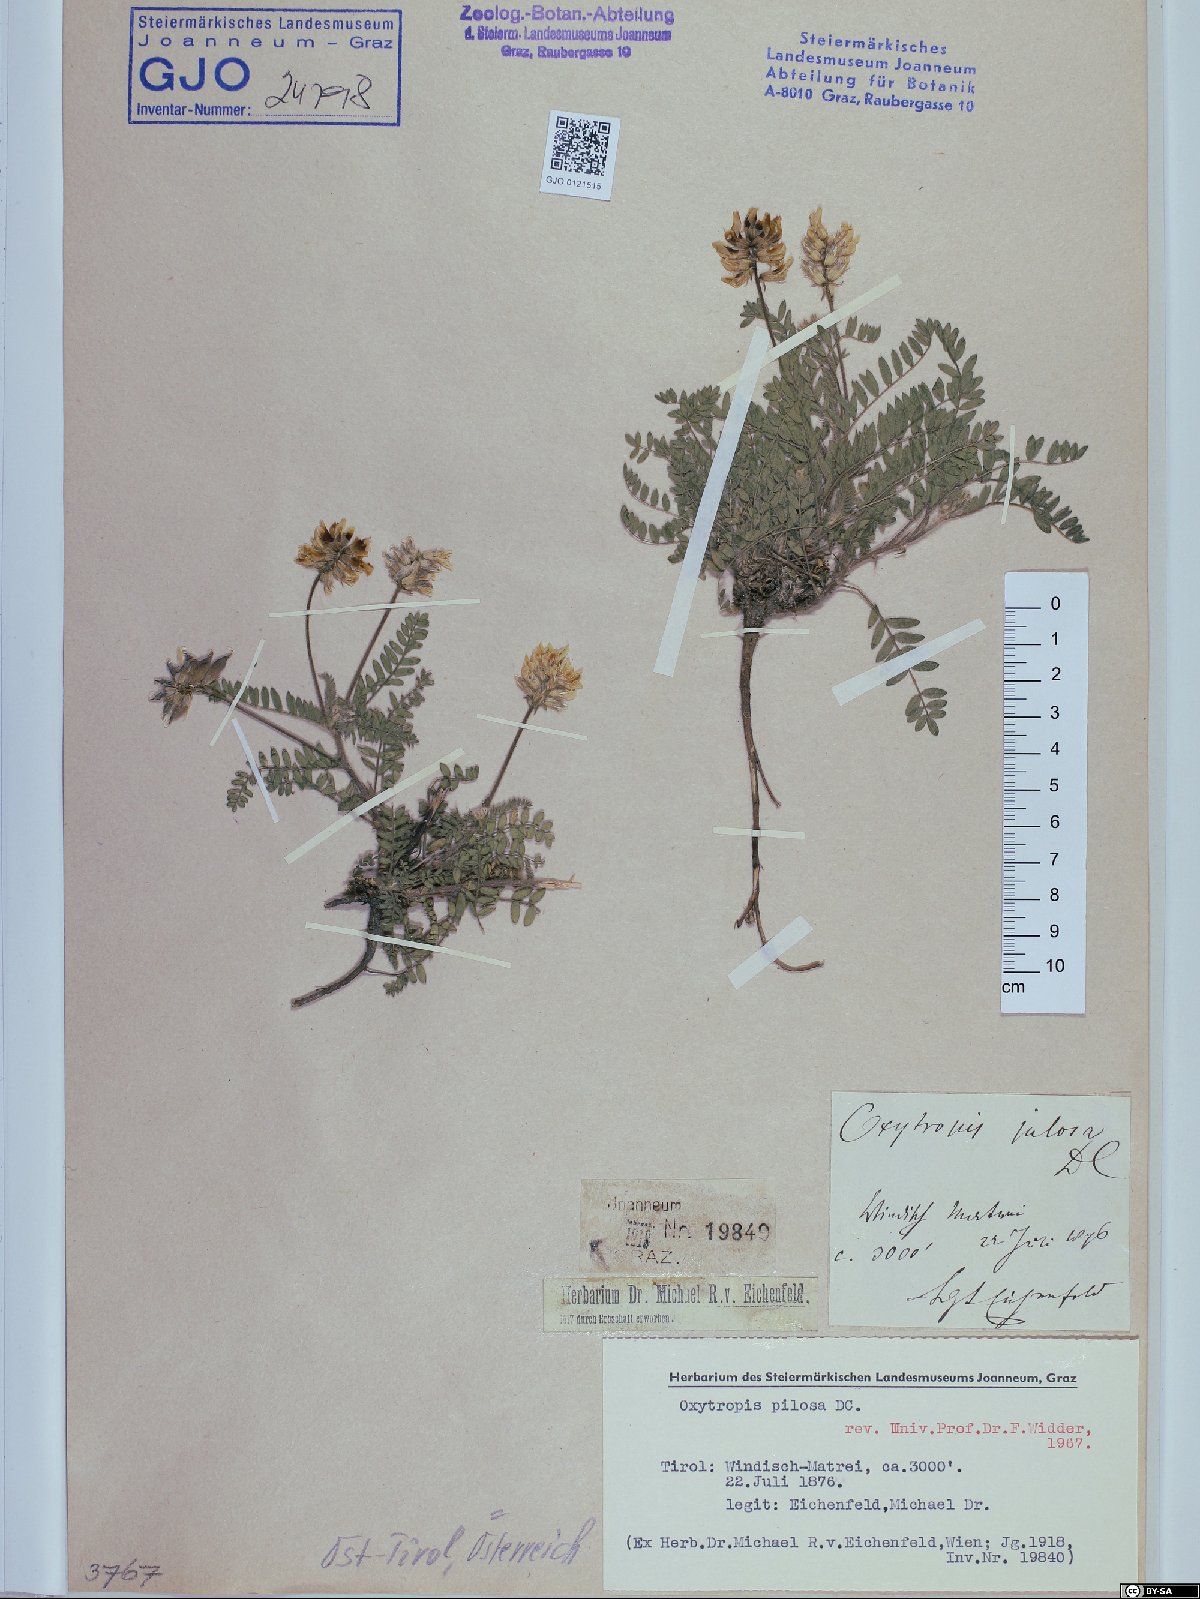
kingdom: Plantae
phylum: Tracheophyta
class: Magnoliopsida
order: Fabales
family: Fabaceae
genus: Oxytropis
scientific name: Oxytropis pilosa
